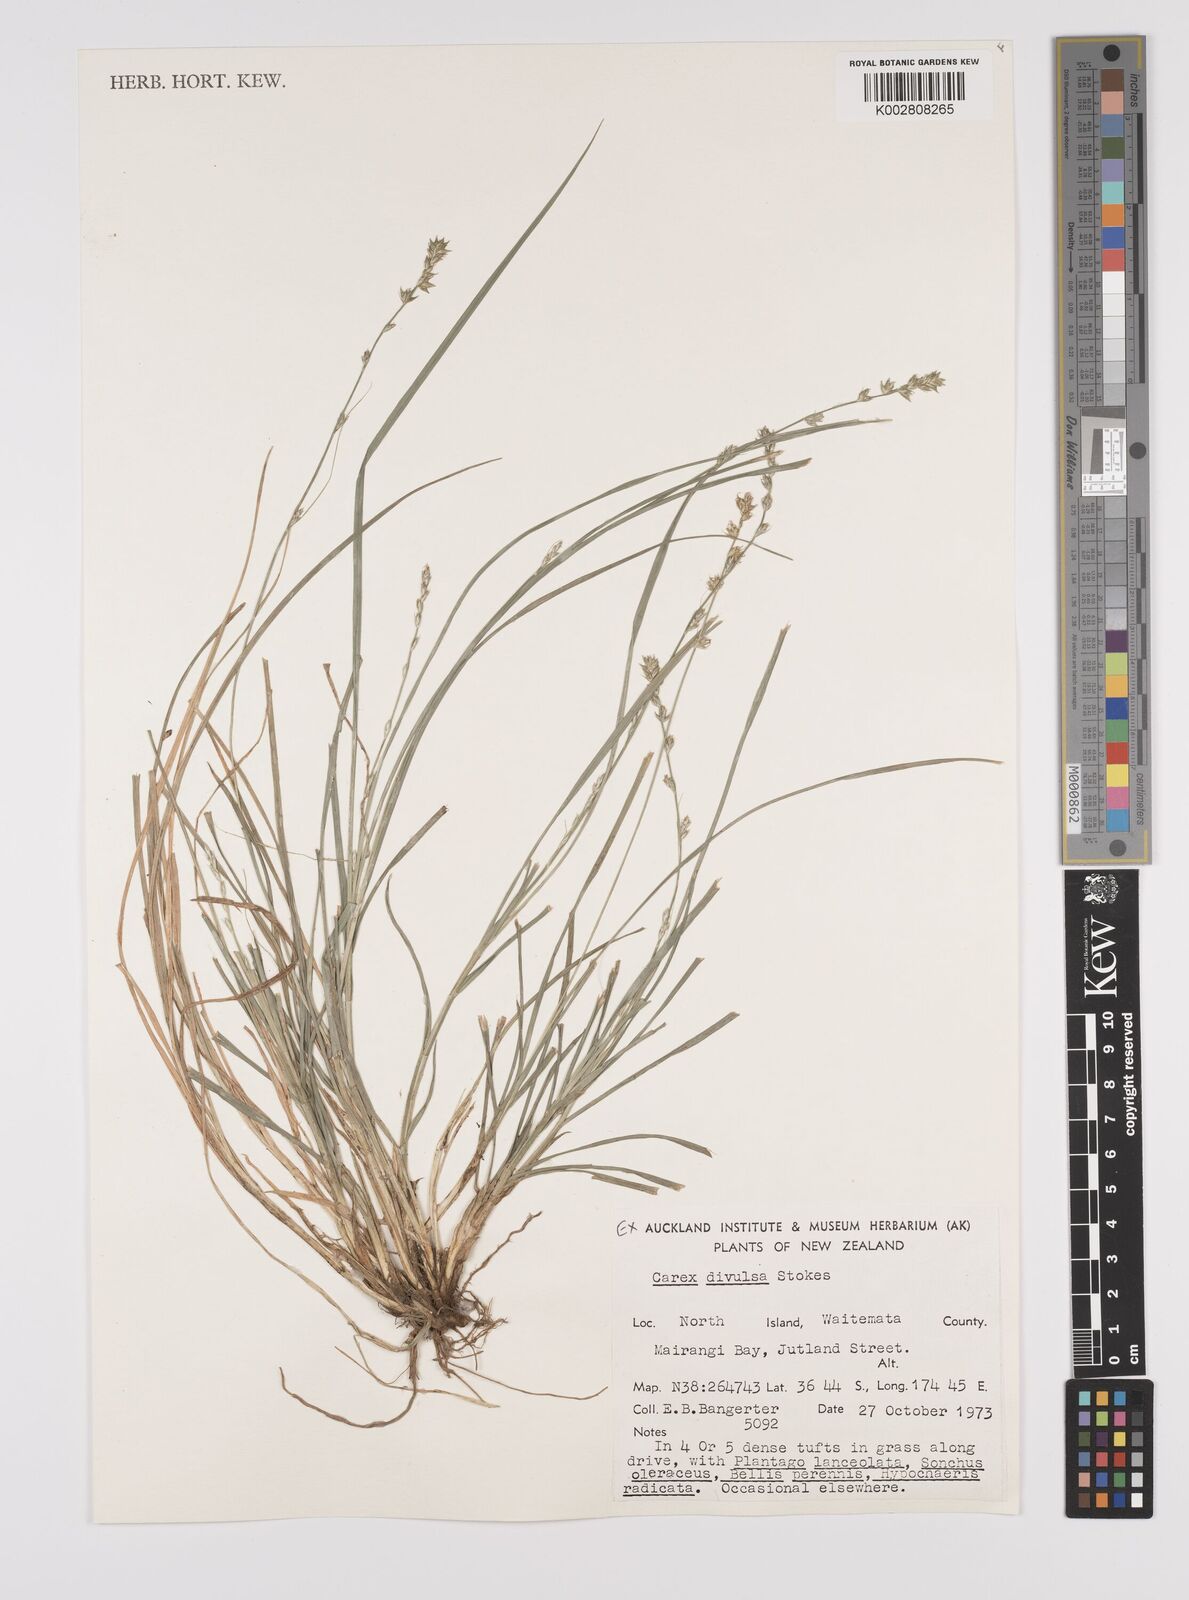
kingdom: Plantae
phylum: Tracheophyta
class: Liliopsida
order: Poales
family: Cyperaceae
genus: Carex
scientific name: Carex divulsa
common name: Grassland sedge
